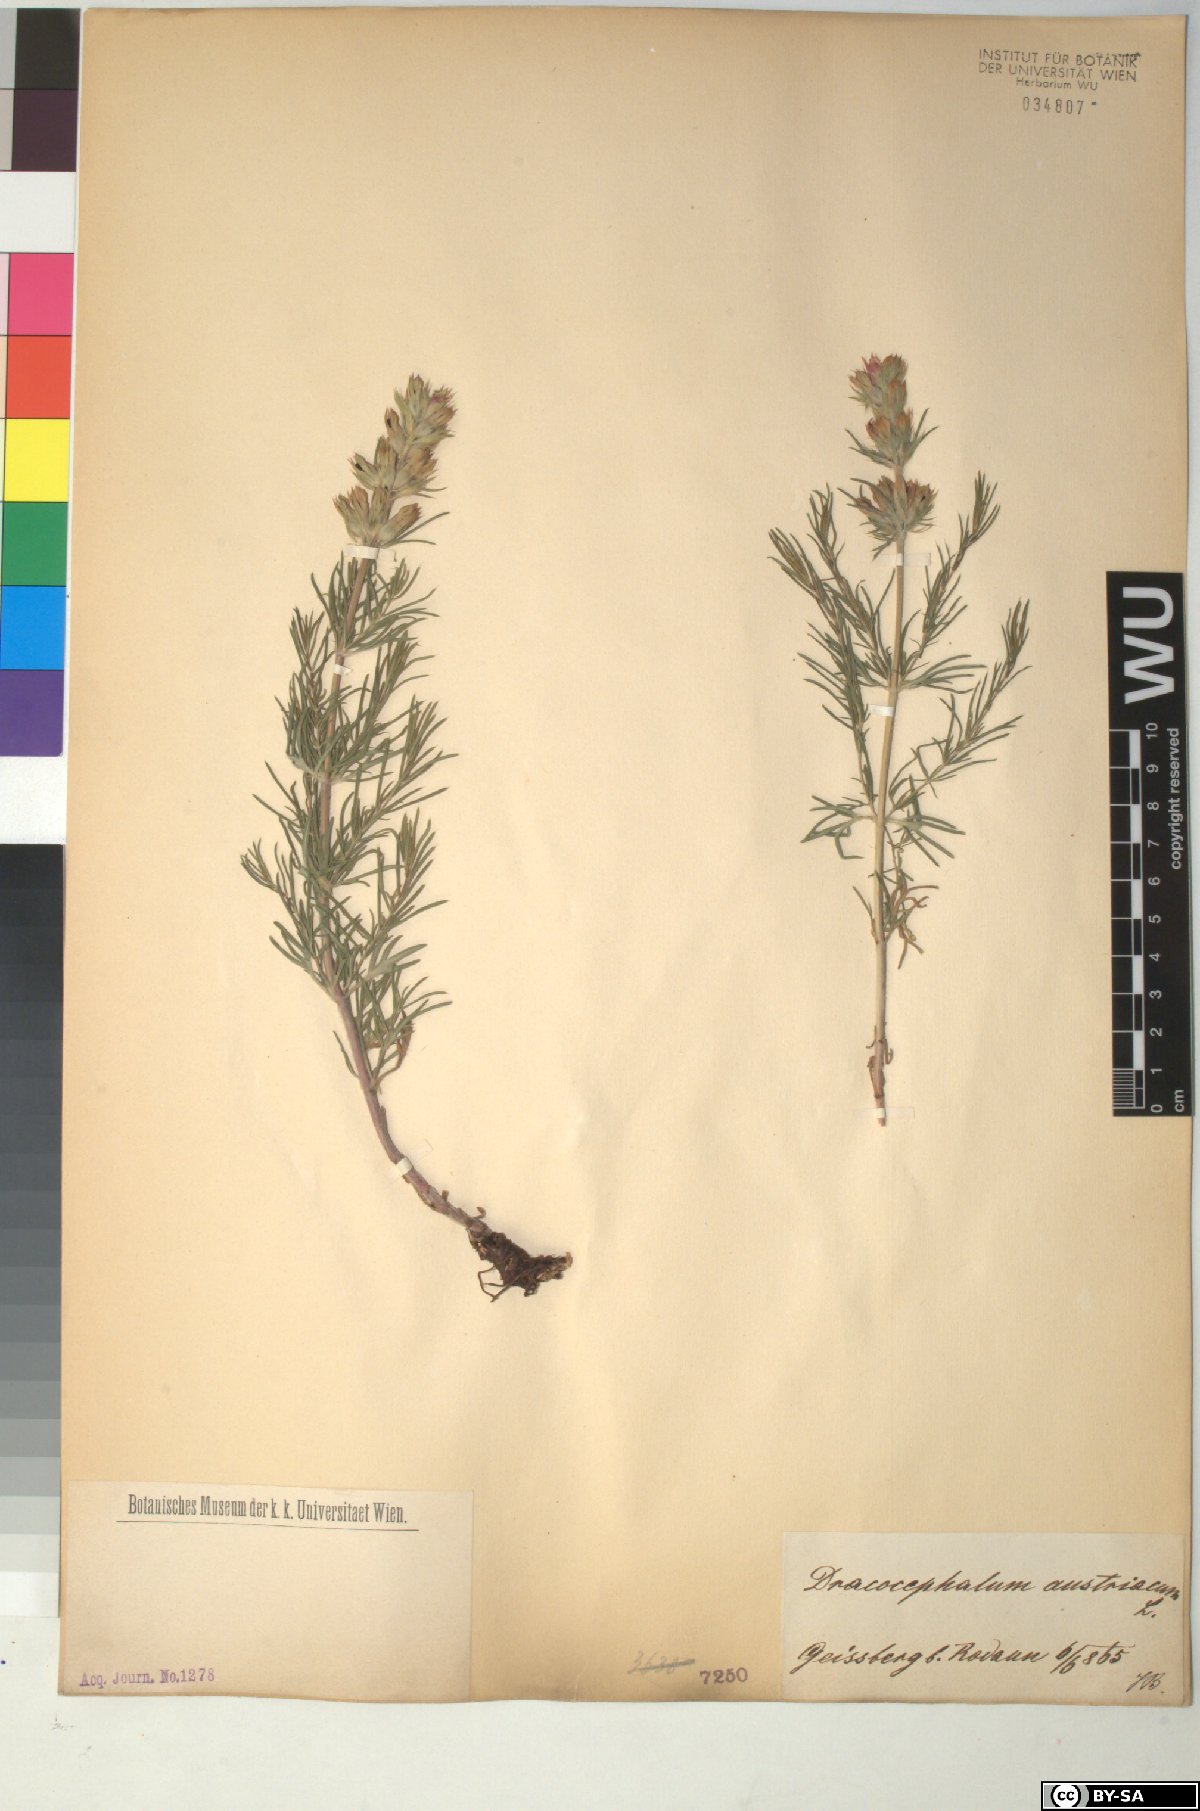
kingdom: Plantae
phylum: Tracheophyta
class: Magnoliopsida
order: Lamiales
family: Lamiaceae
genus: Dracocephalum
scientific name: Dracocephalum austriacum
